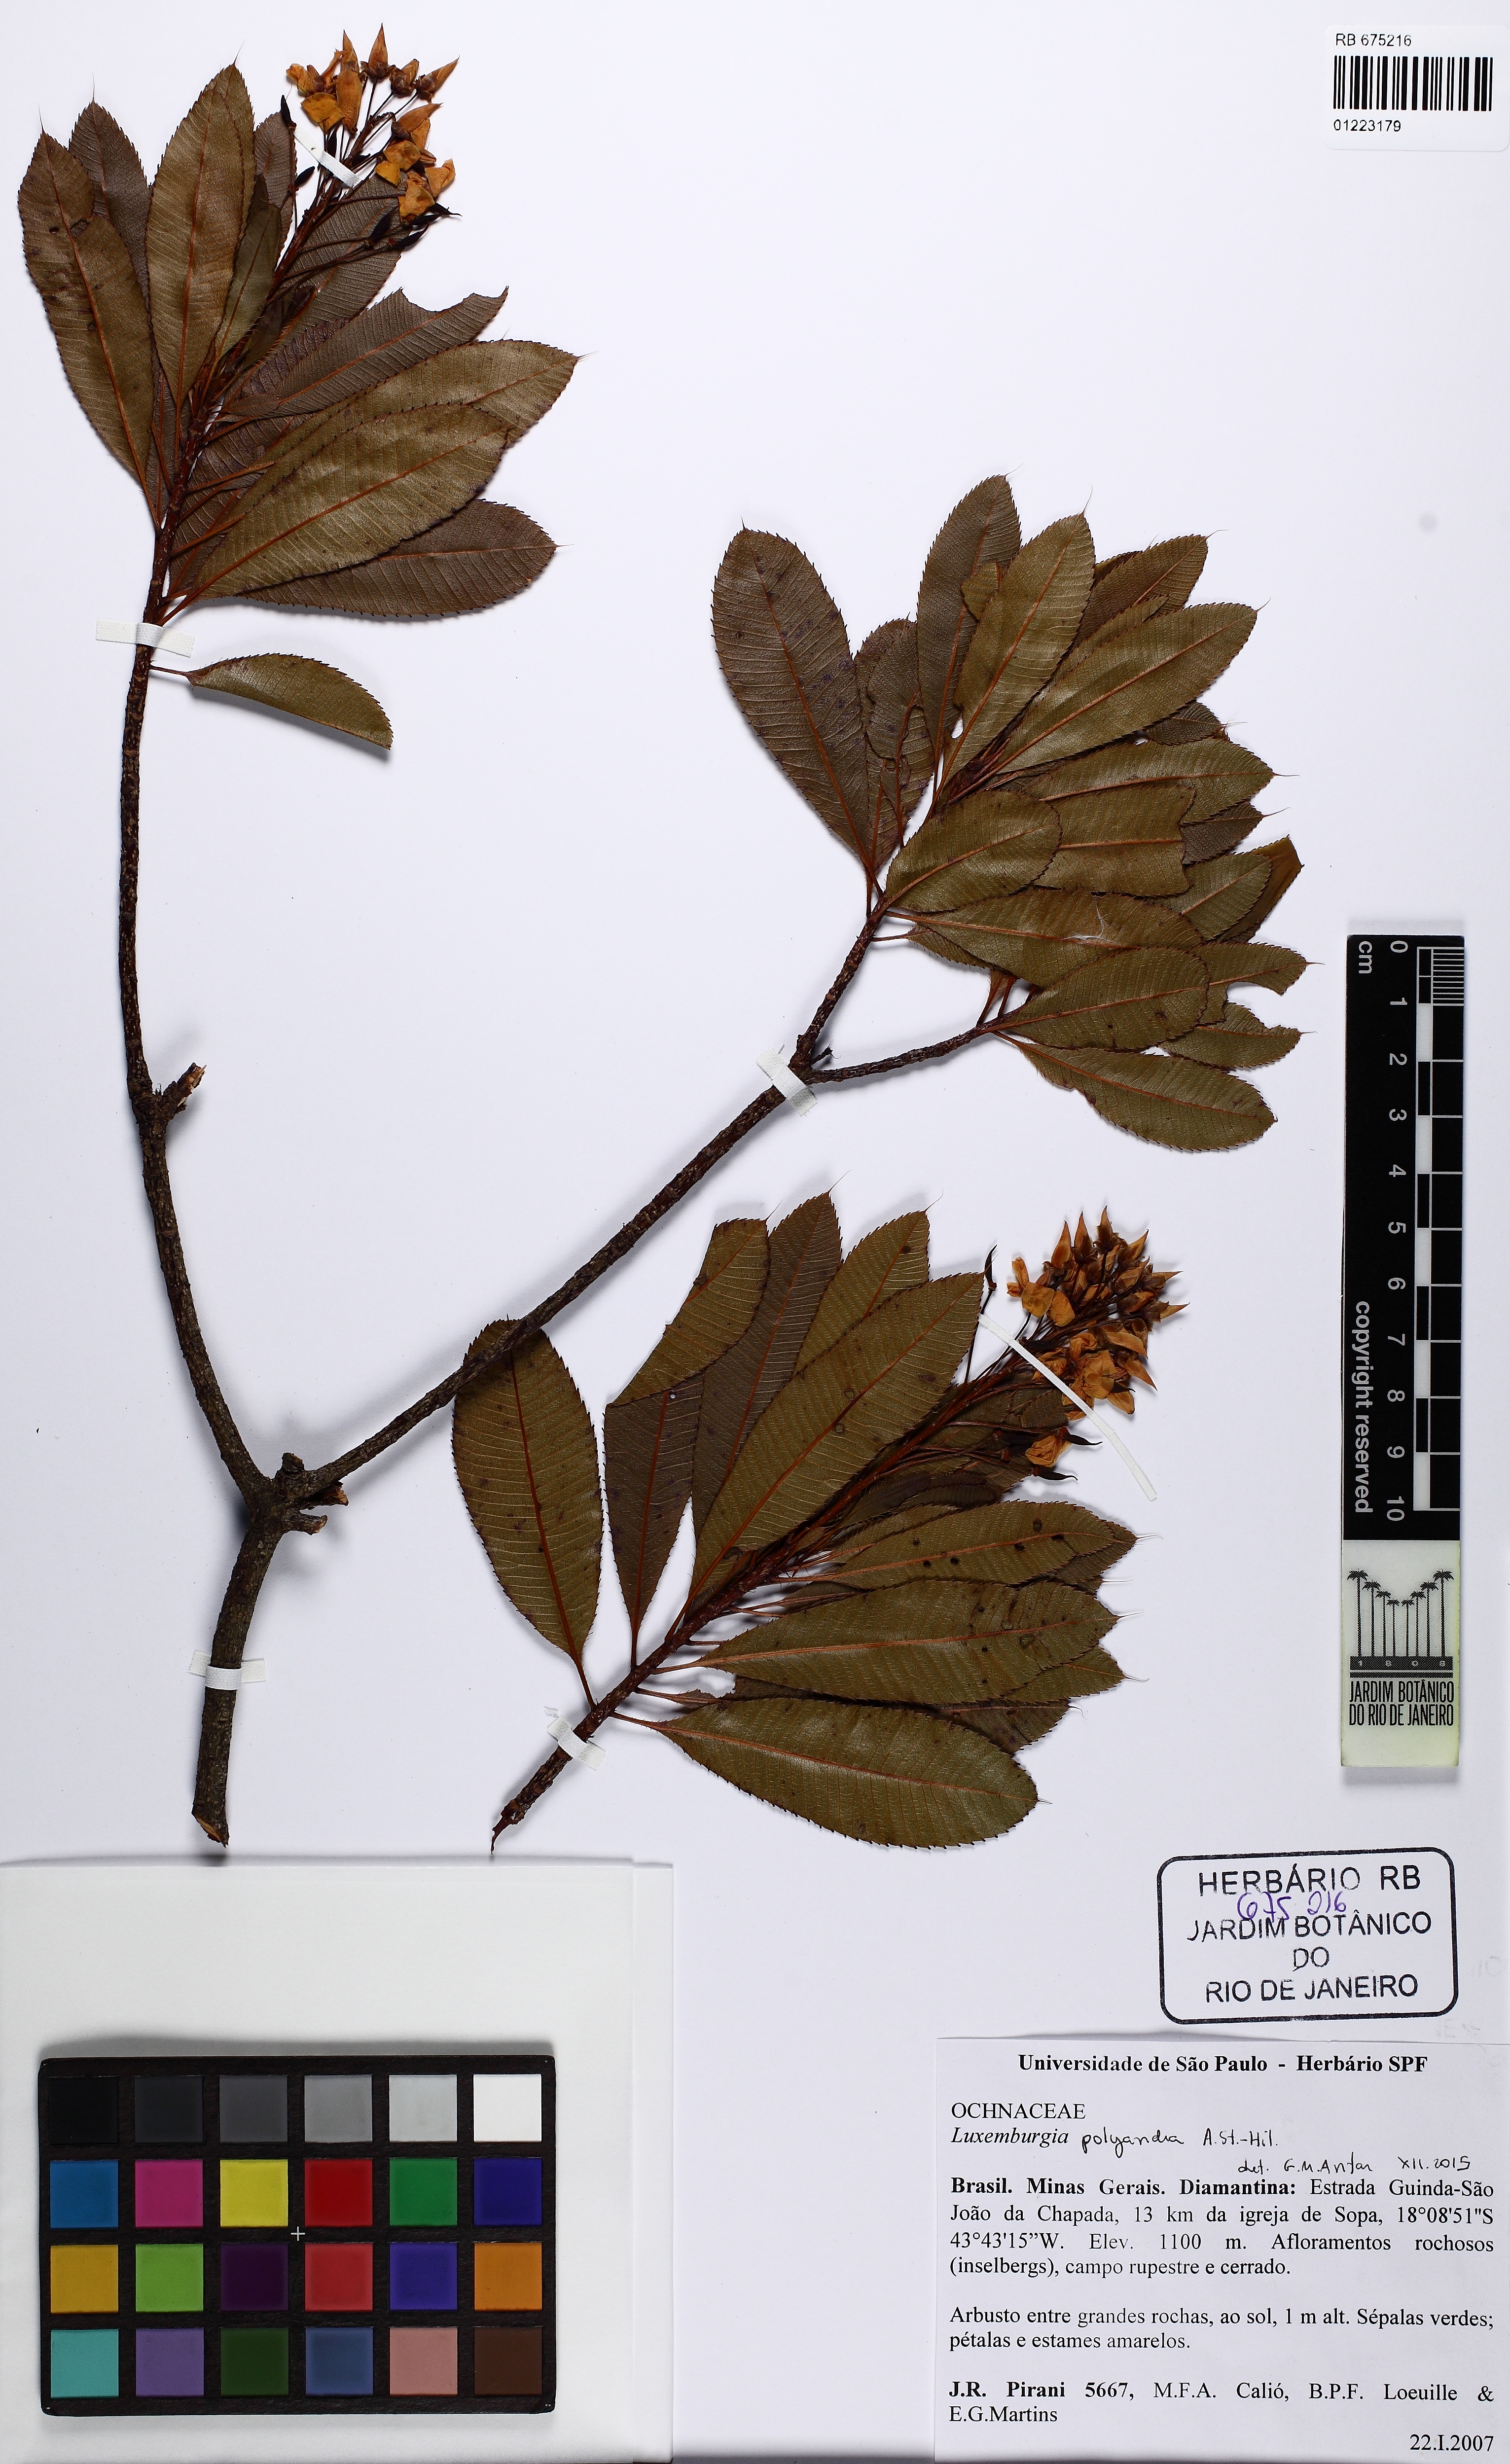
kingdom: Plantae
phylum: Tracheophyta
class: Magnoliopsida
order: Malpighiales
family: Ochnaceae
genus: Luxemburgia
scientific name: Luxemburgia polyandra
